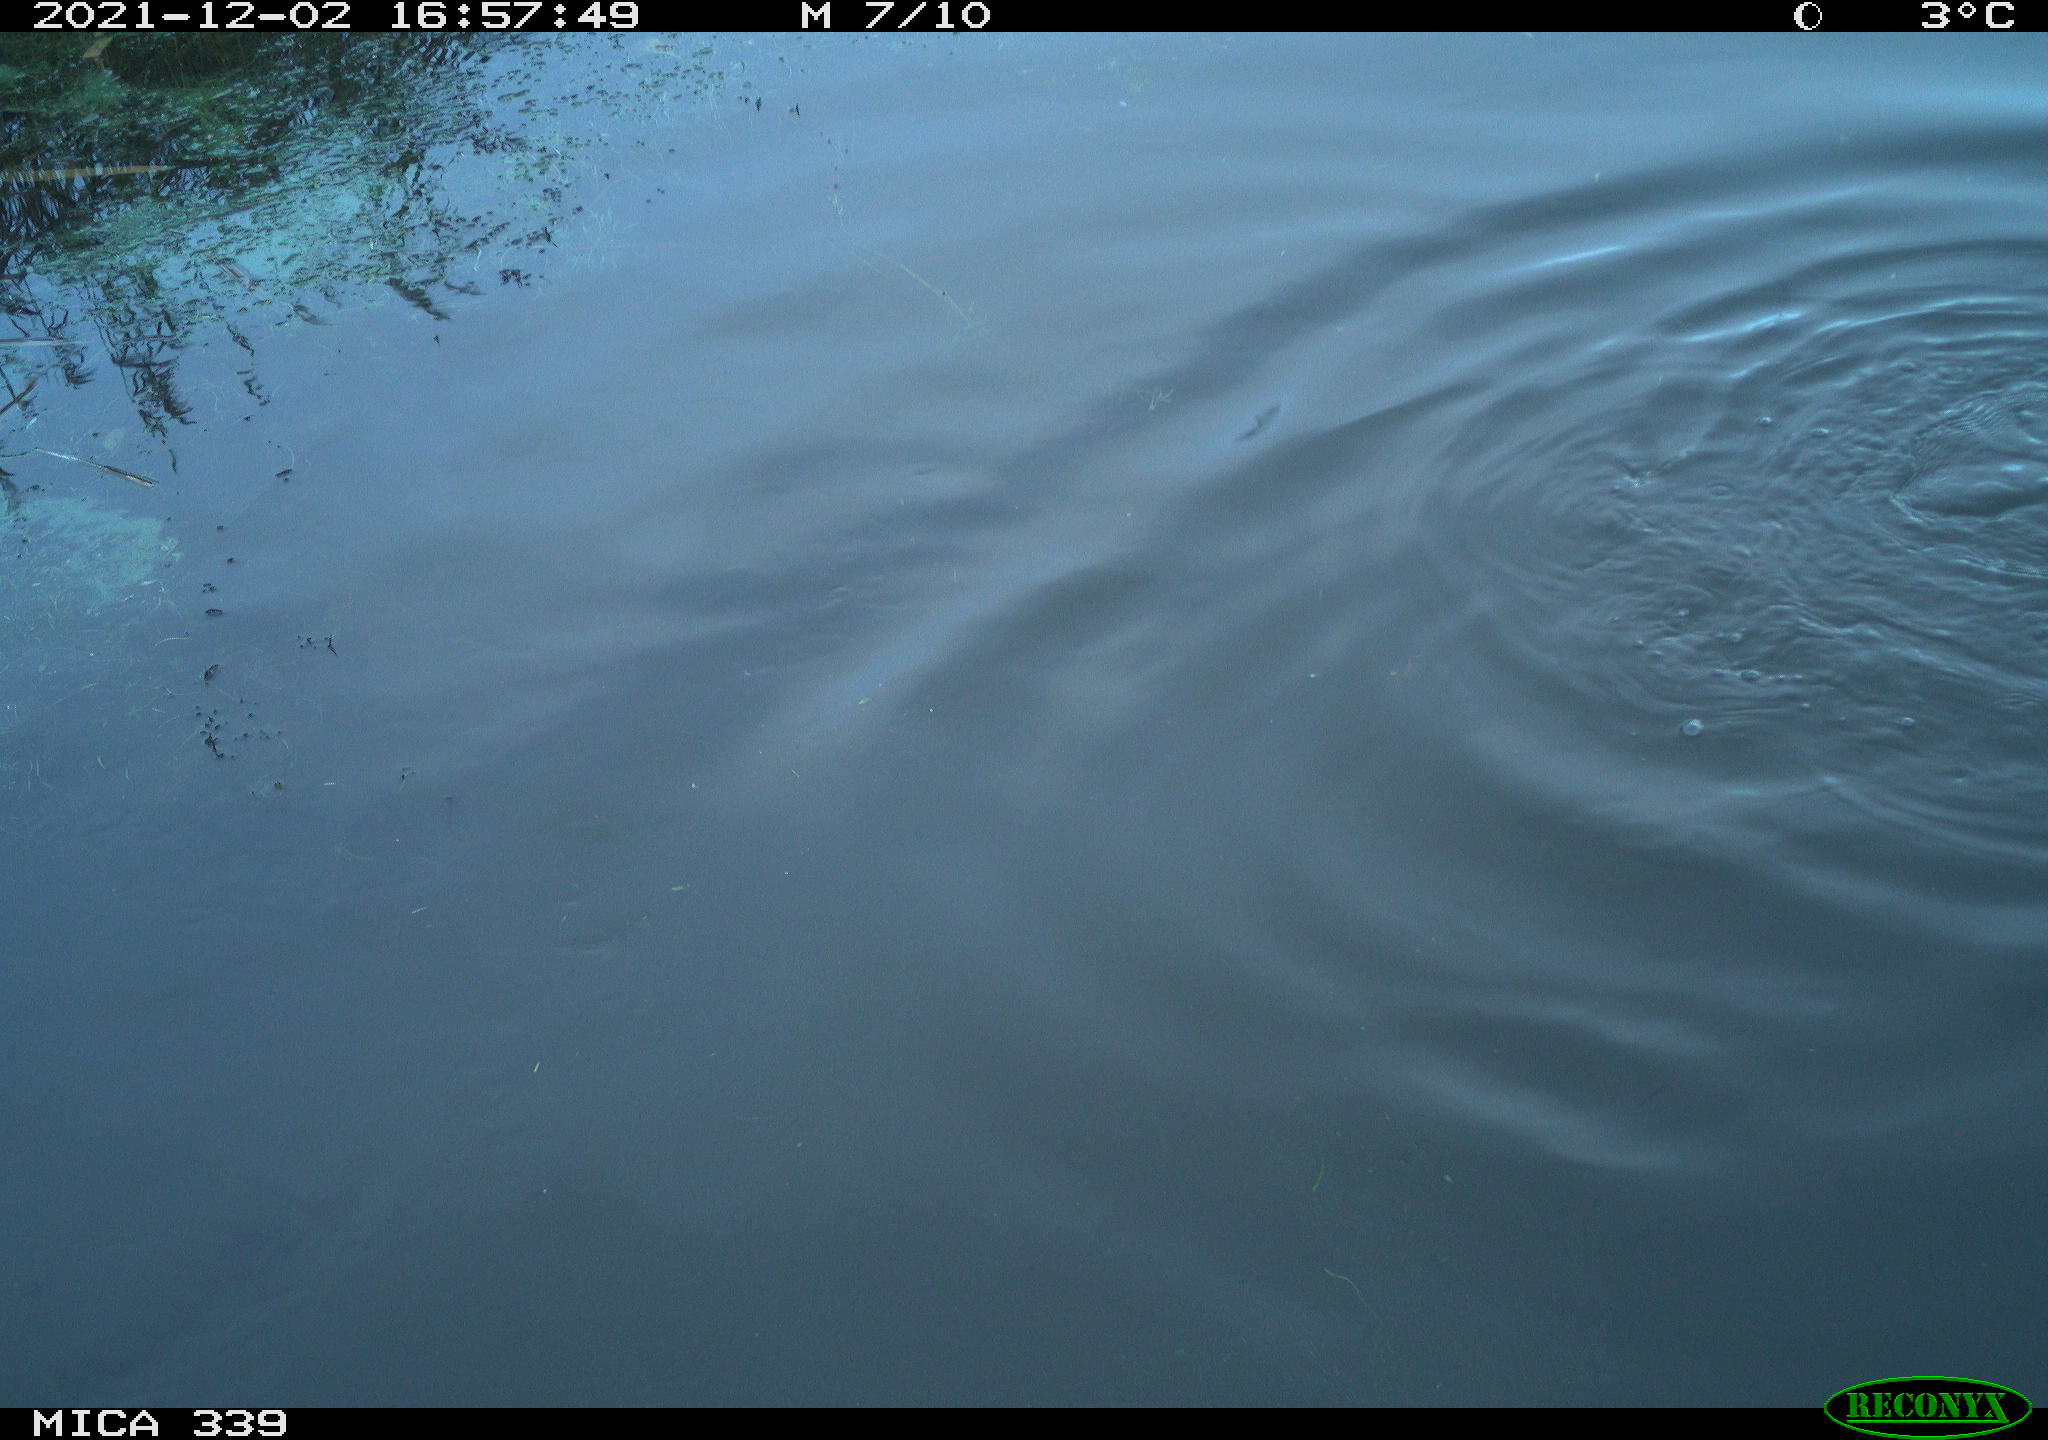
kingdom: Animalia
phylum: Chordata
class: Aves
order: Suliformes
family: Phalacrocoracidae
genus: Phalacrocorax
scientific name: Phalacrocorax carbo
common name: Great cormorant
